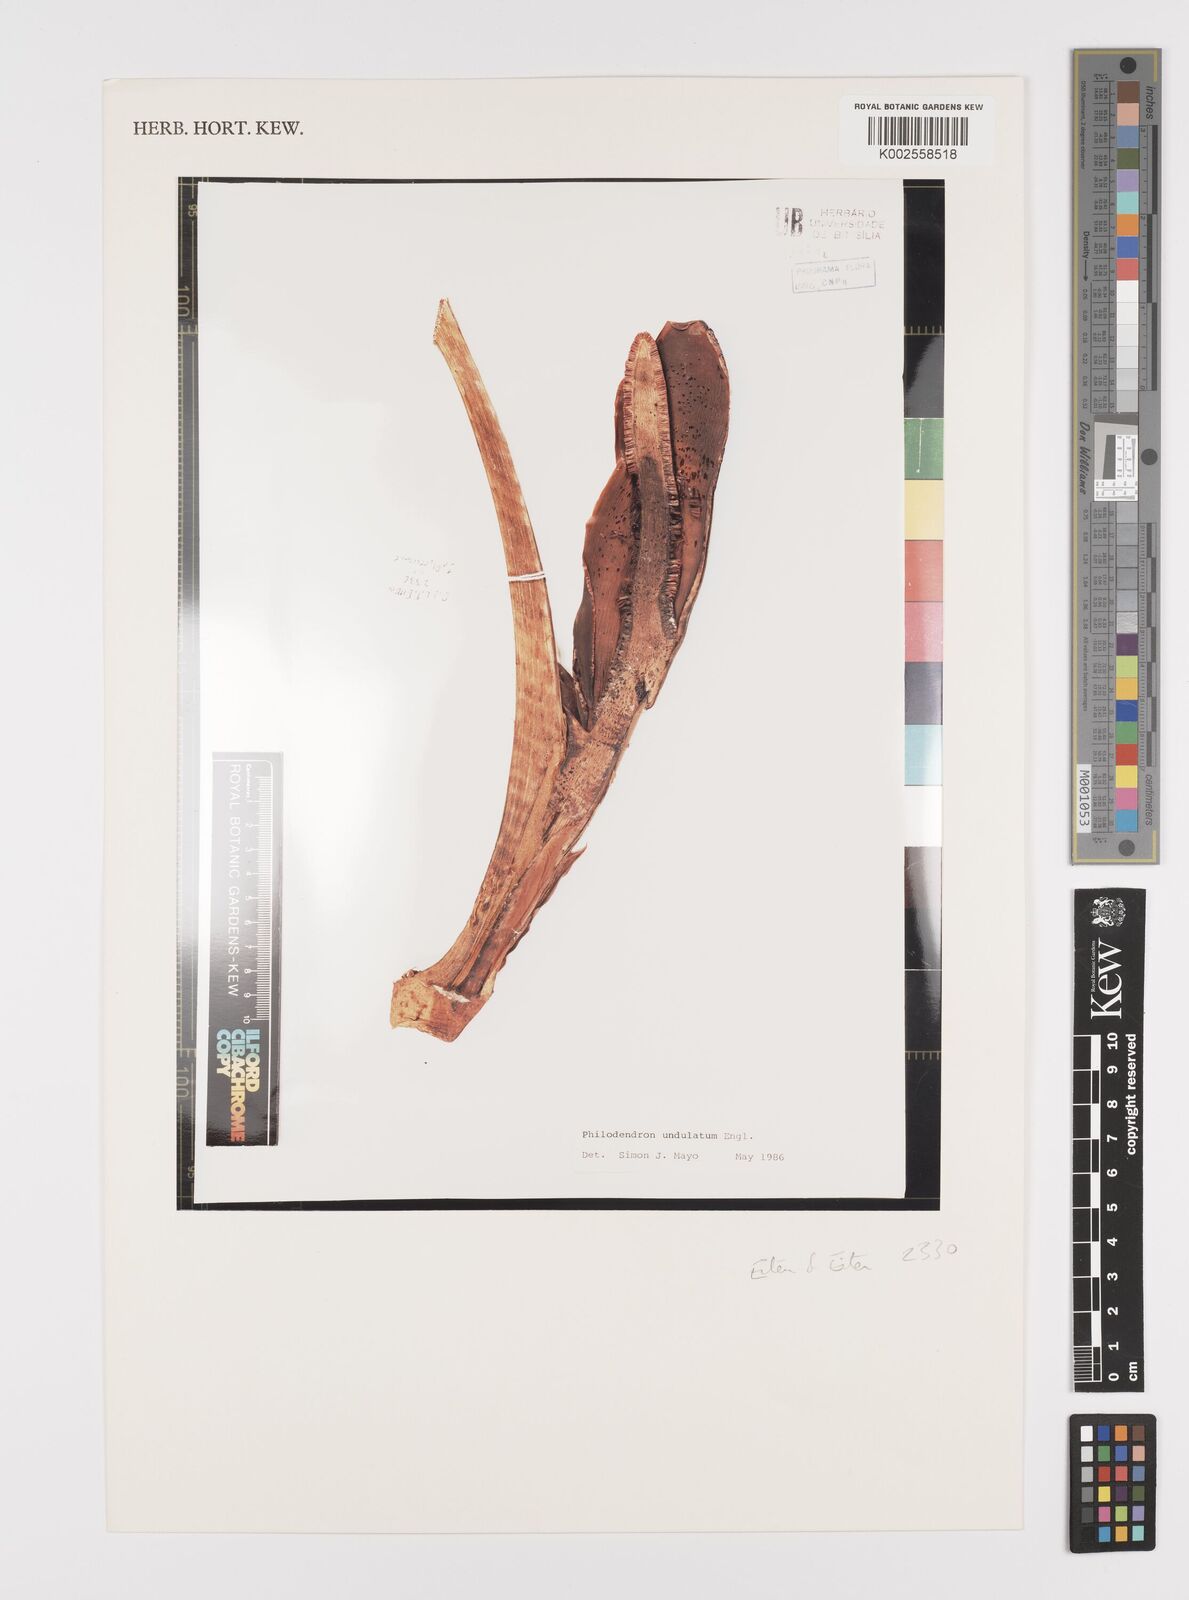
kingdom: Plantae
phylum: Tracheophyta
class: Liliopsida
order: Alismatales
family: Araceae
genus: Thaumatophyllum
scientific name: Thaumatophyllum undulatum
